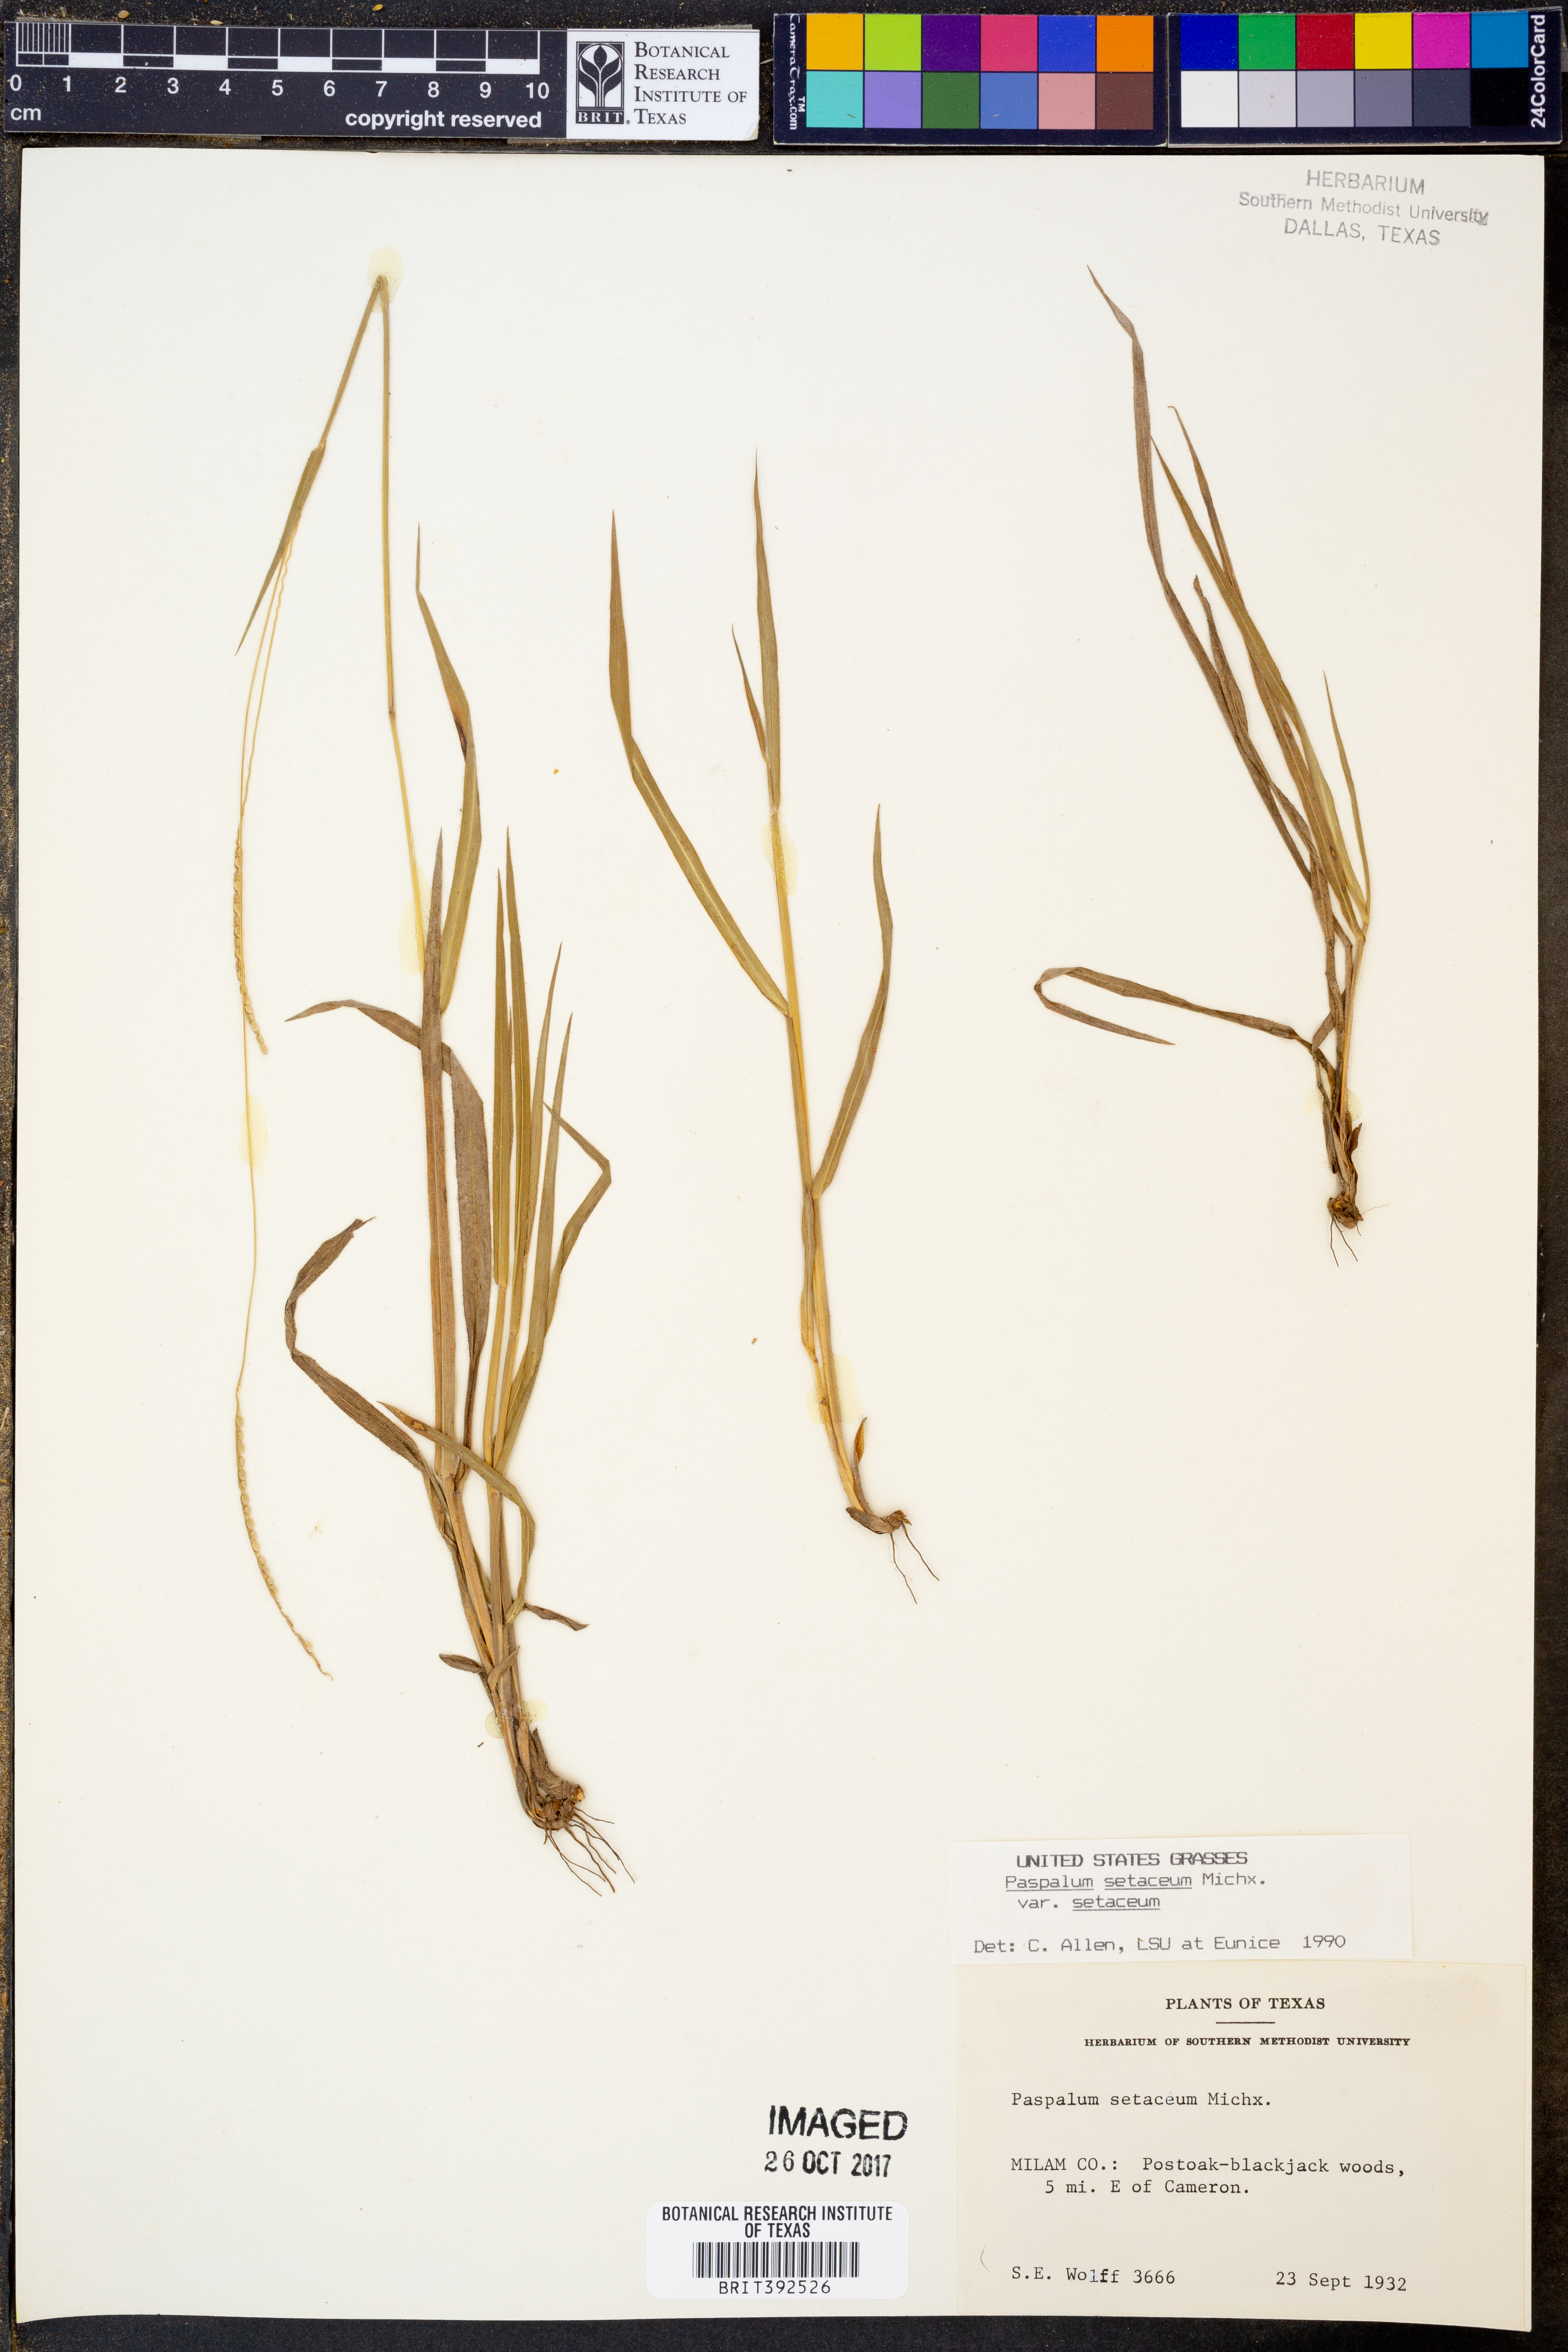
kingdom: Plantae
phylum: Tracheophyta
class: Liliopsida
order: Poales
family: Poaceae
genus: Paspalum
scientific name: Paspalum setaceum
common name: Slender paspalum
